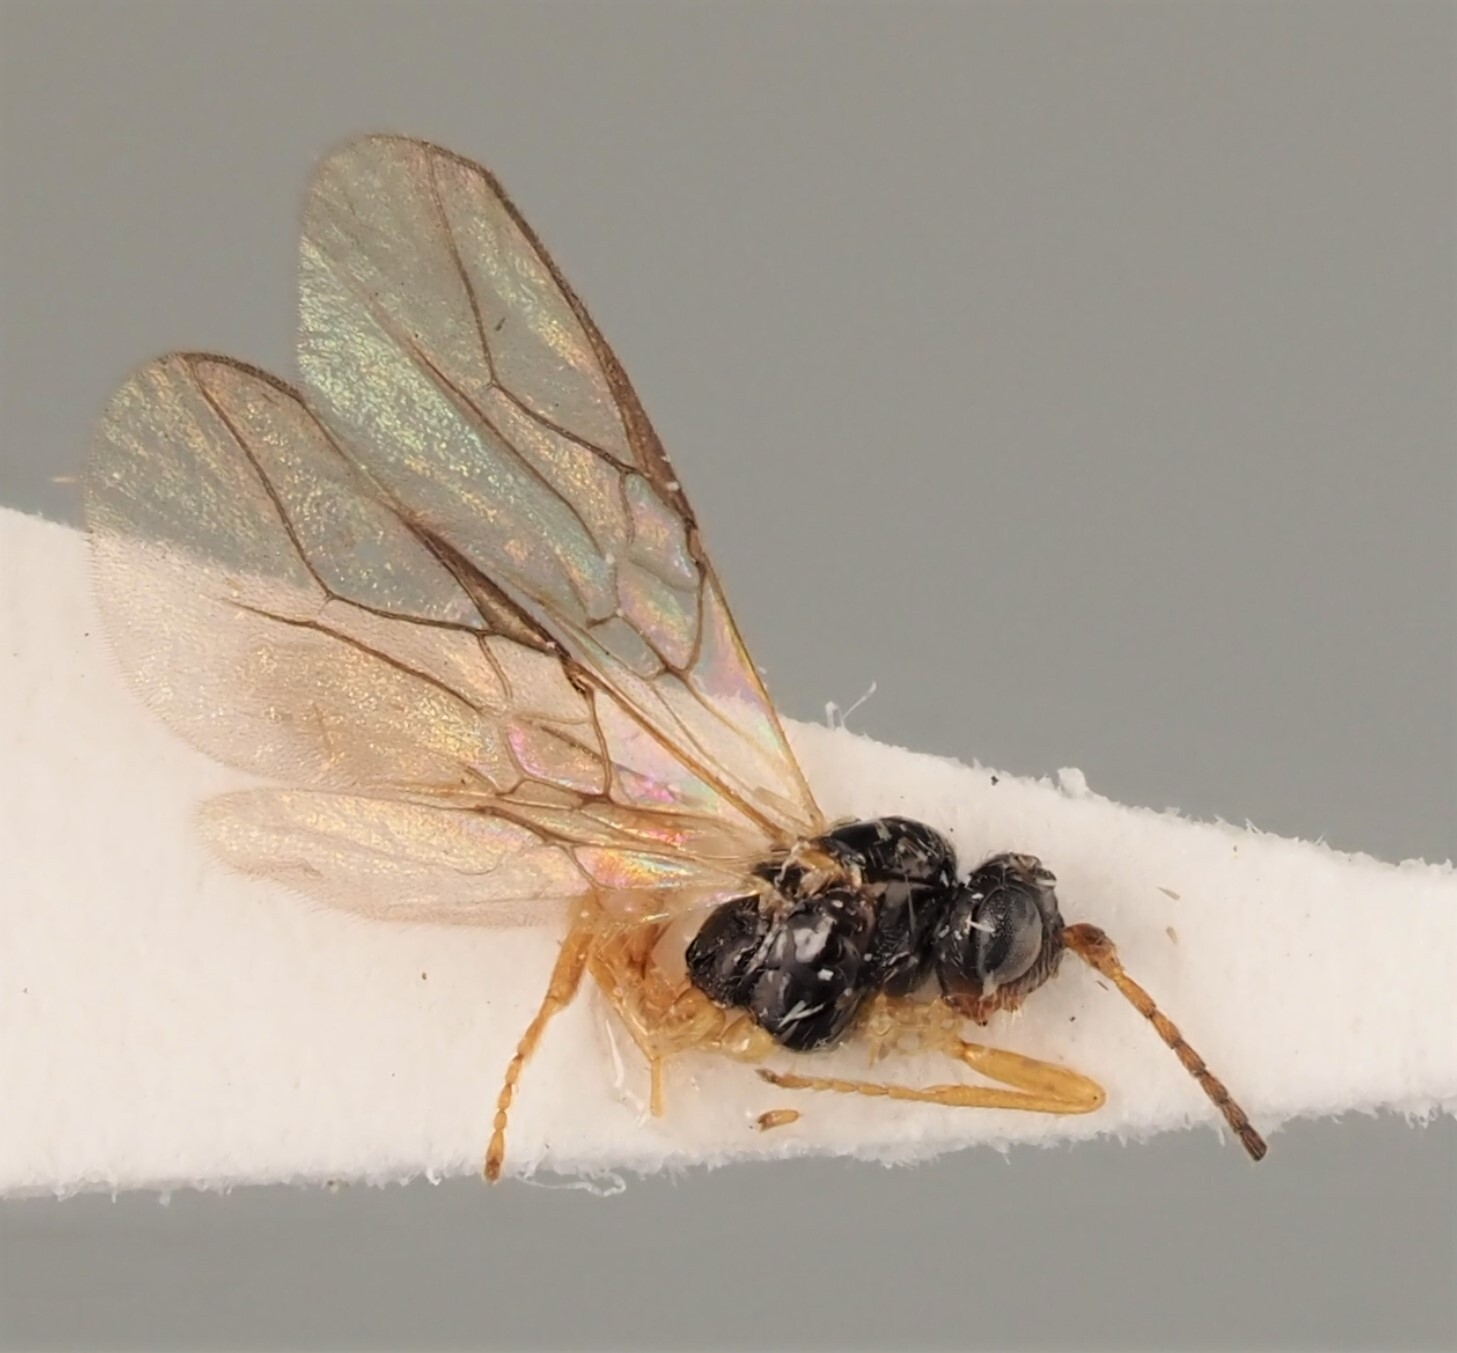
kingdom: Animalia
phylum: Arthropoda
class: Insecta
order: Hymenoptera
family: Braconidae
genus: Opius
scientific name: Opius rex
